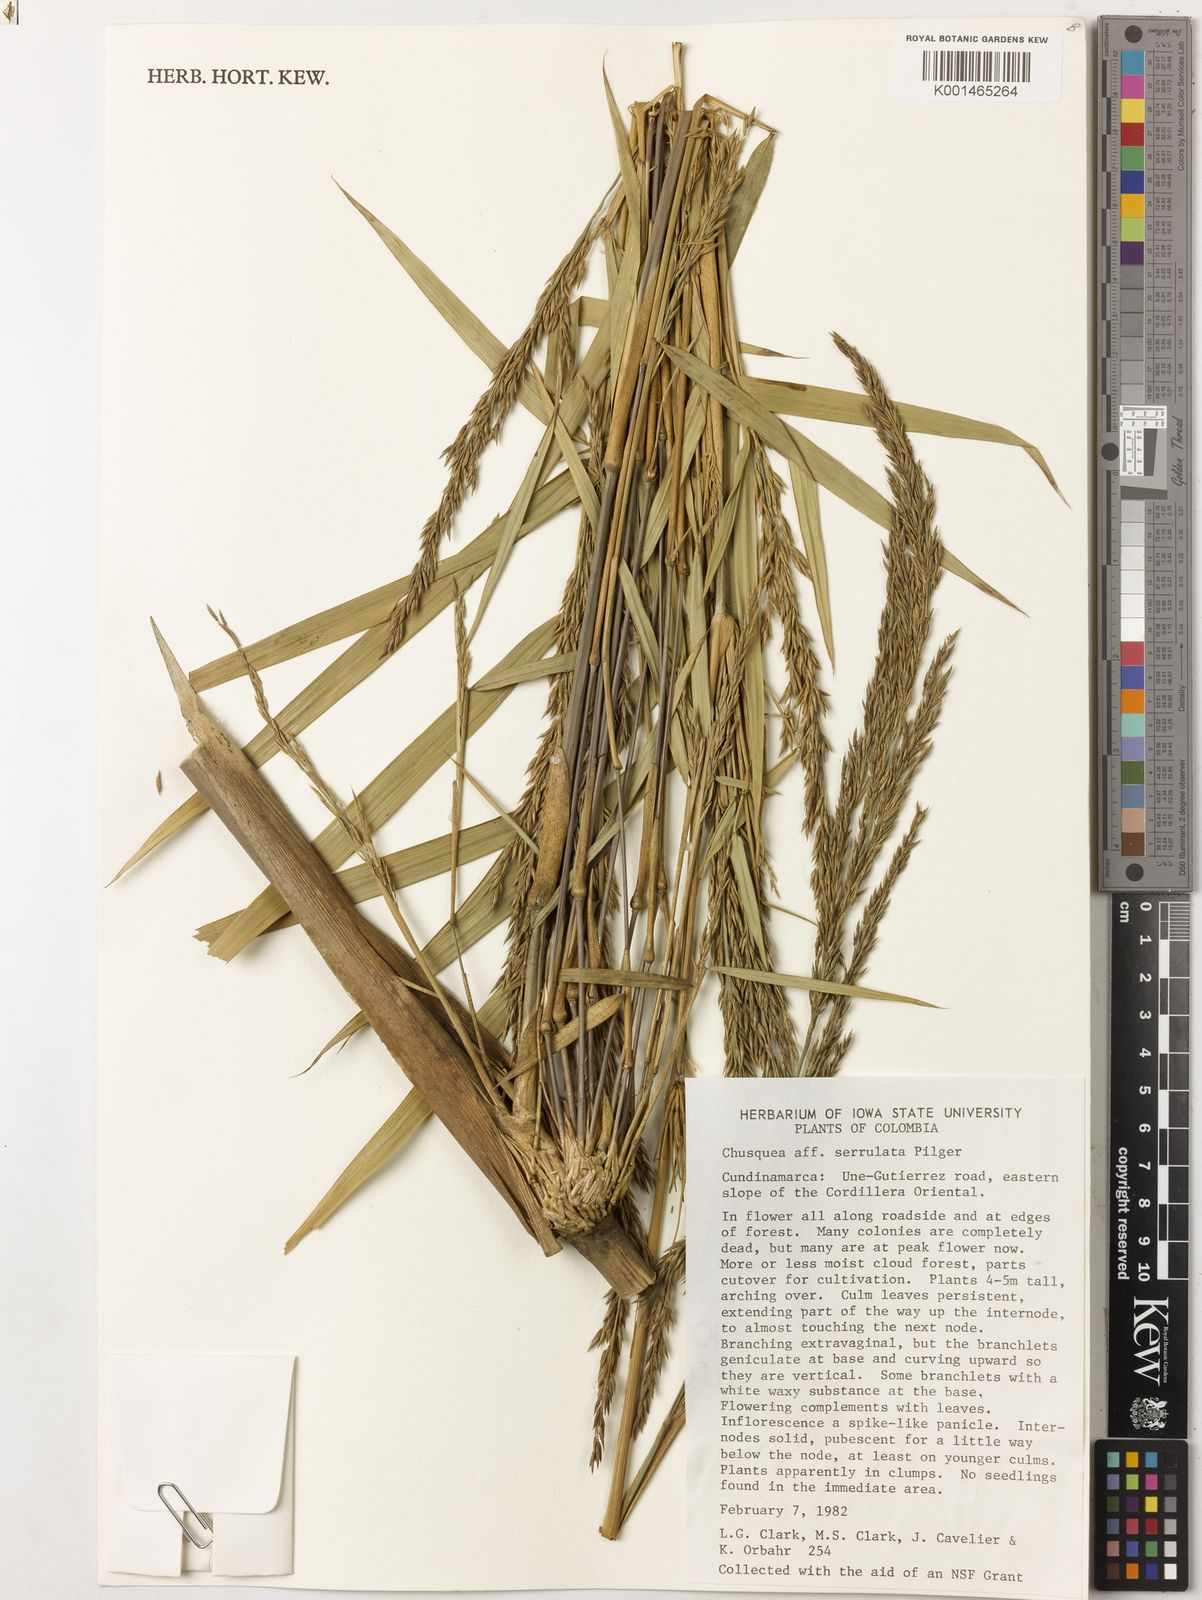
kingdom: Plantae
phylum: Tracheophyta
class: Liliopsida
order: Poales
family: Poaceae
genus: Chusquea
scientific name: Chusquea
